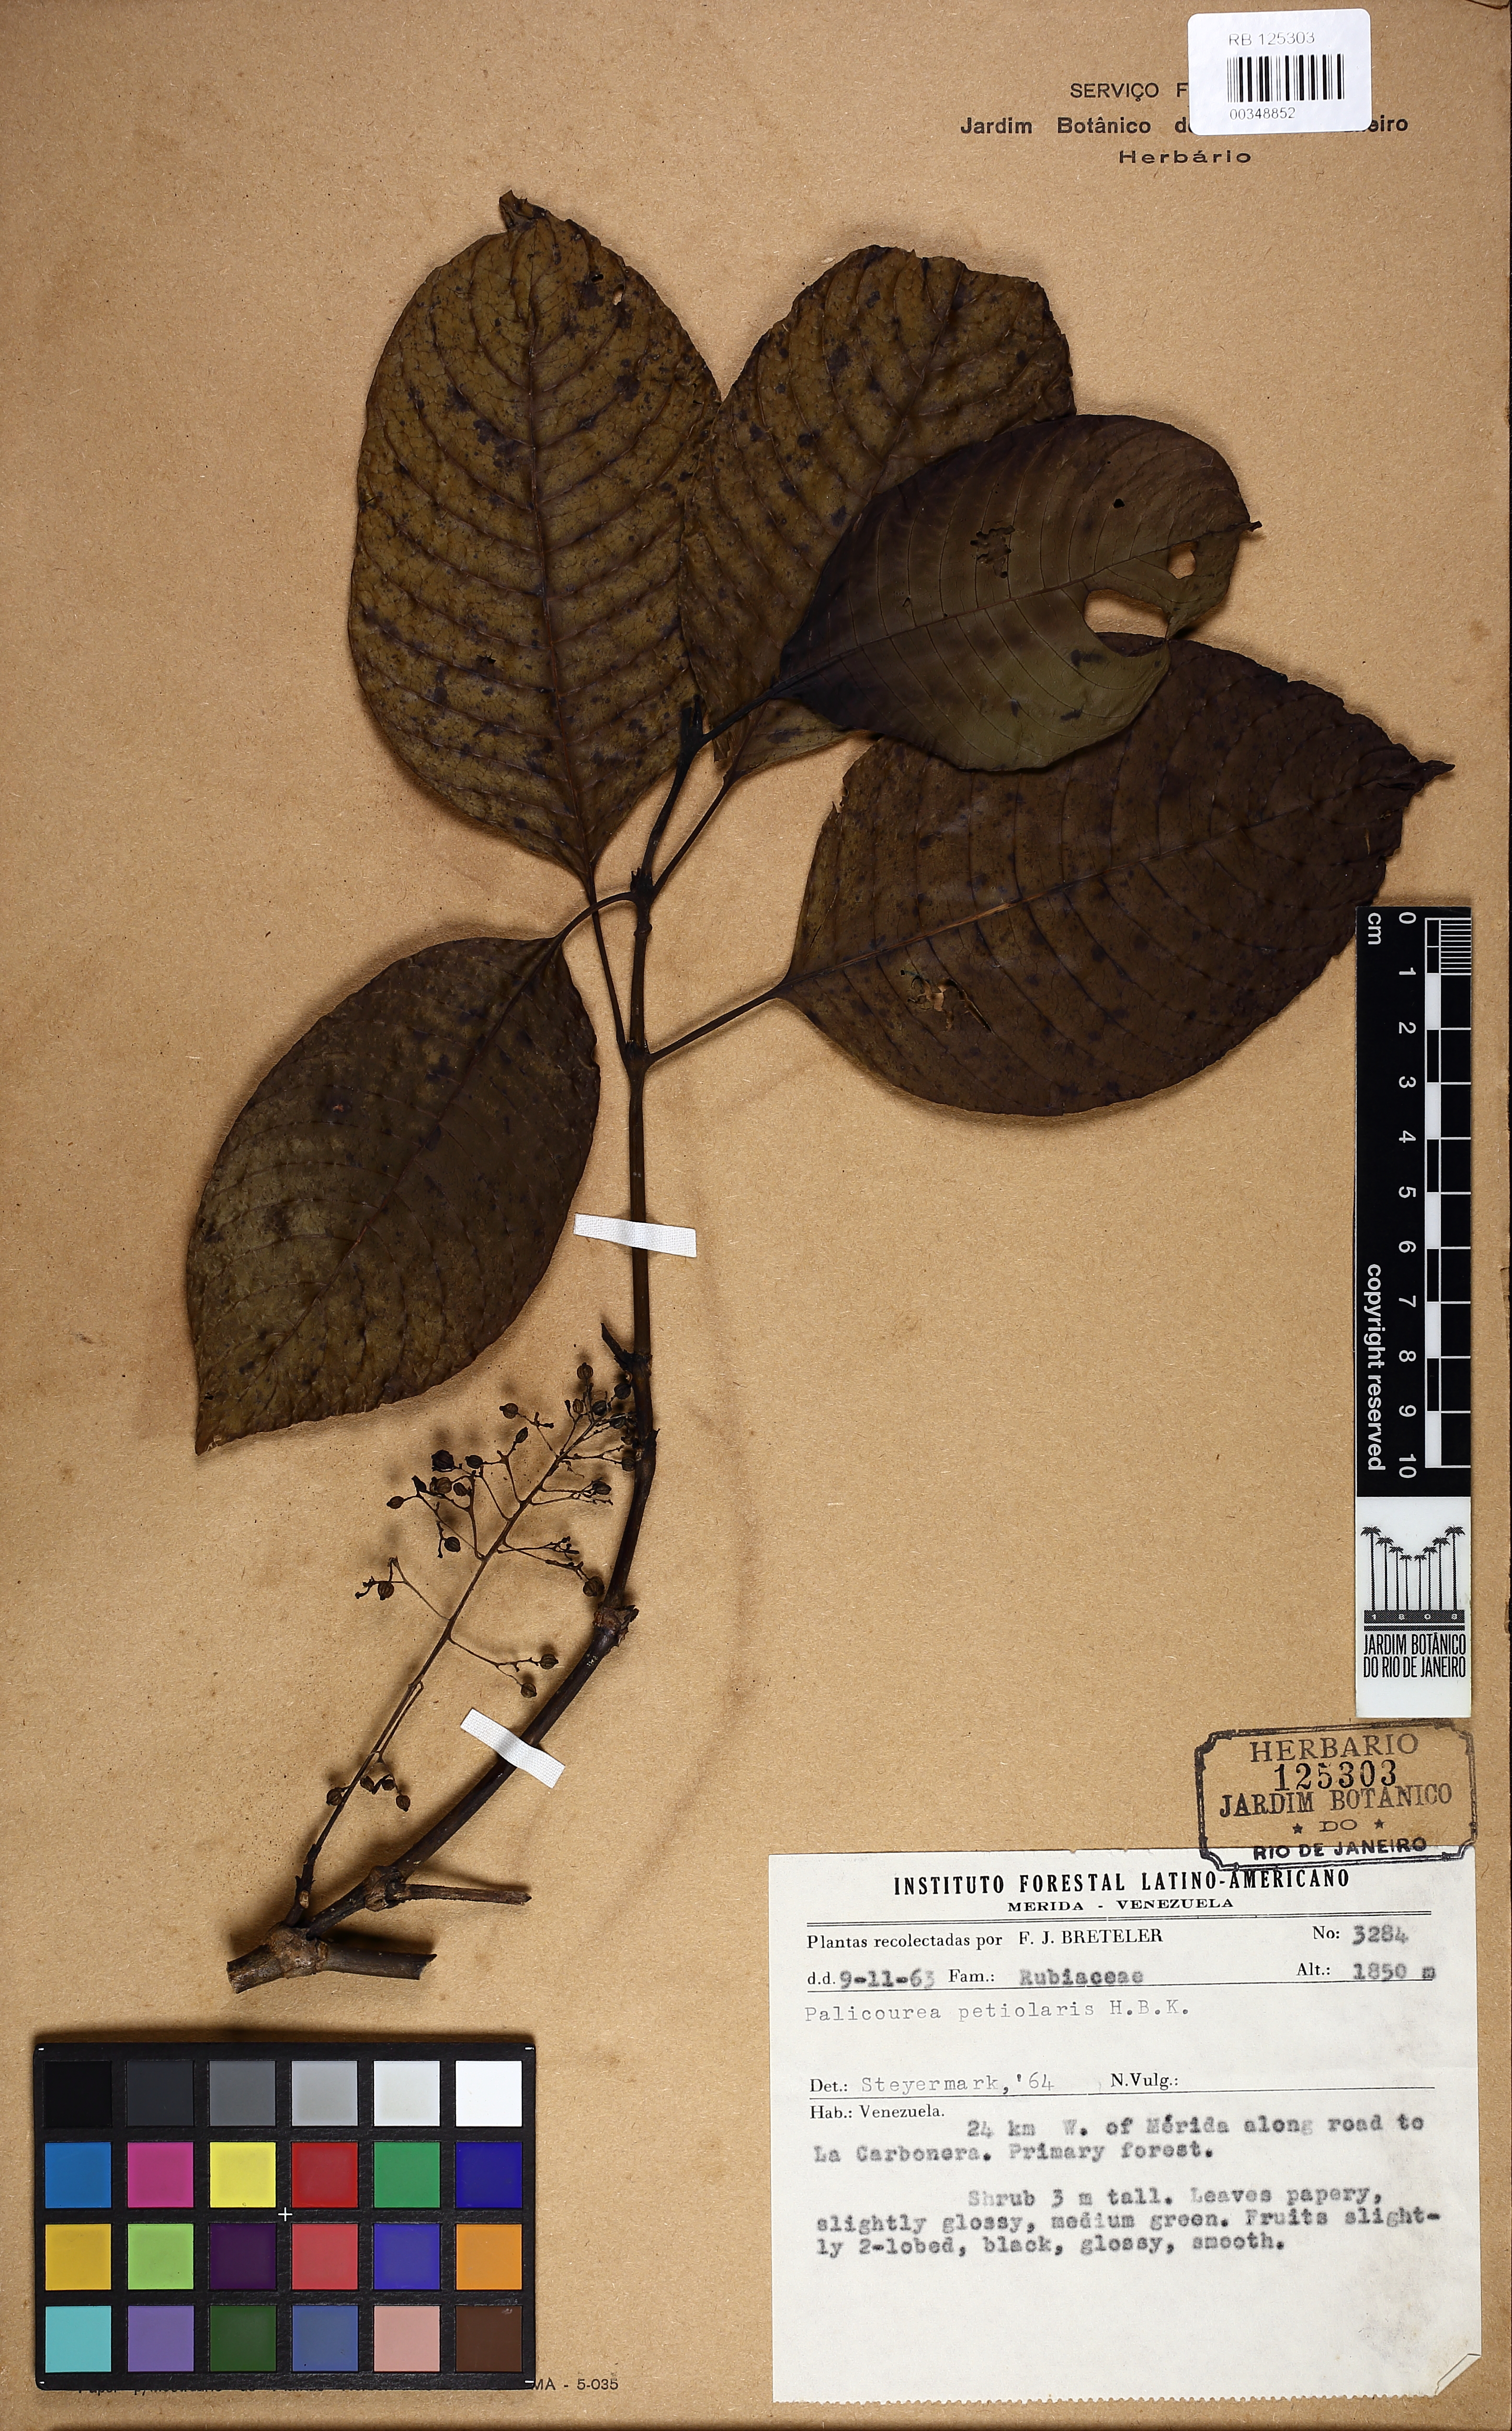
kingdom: Plantae
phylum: Tracheophyta
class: Magnoliopsida
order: Gentianales
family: Rubiaceae
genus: Palicourea
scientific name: Palicourea petiolaris
